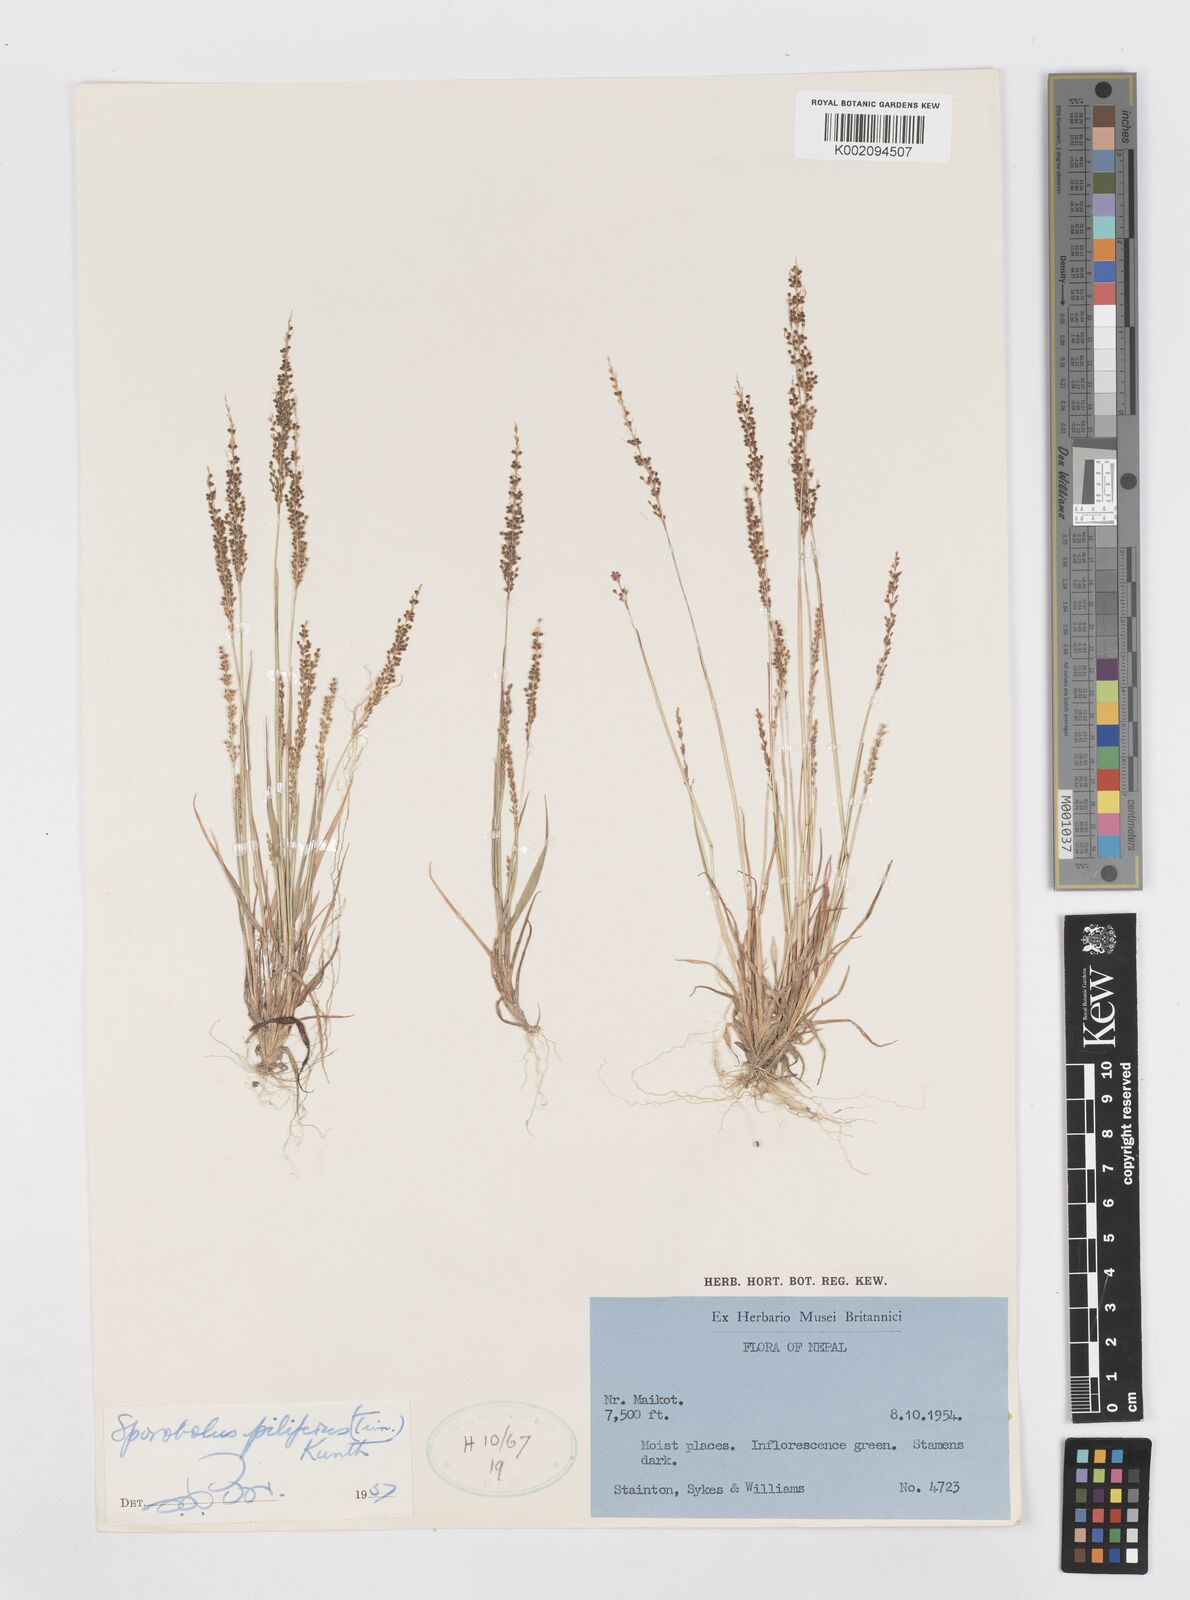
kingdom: Plantae
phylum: Tracheophyta
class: Liliopsida
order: Poales
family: Poaceae
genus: Sporobolus
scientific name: Sporobolus pilifer
